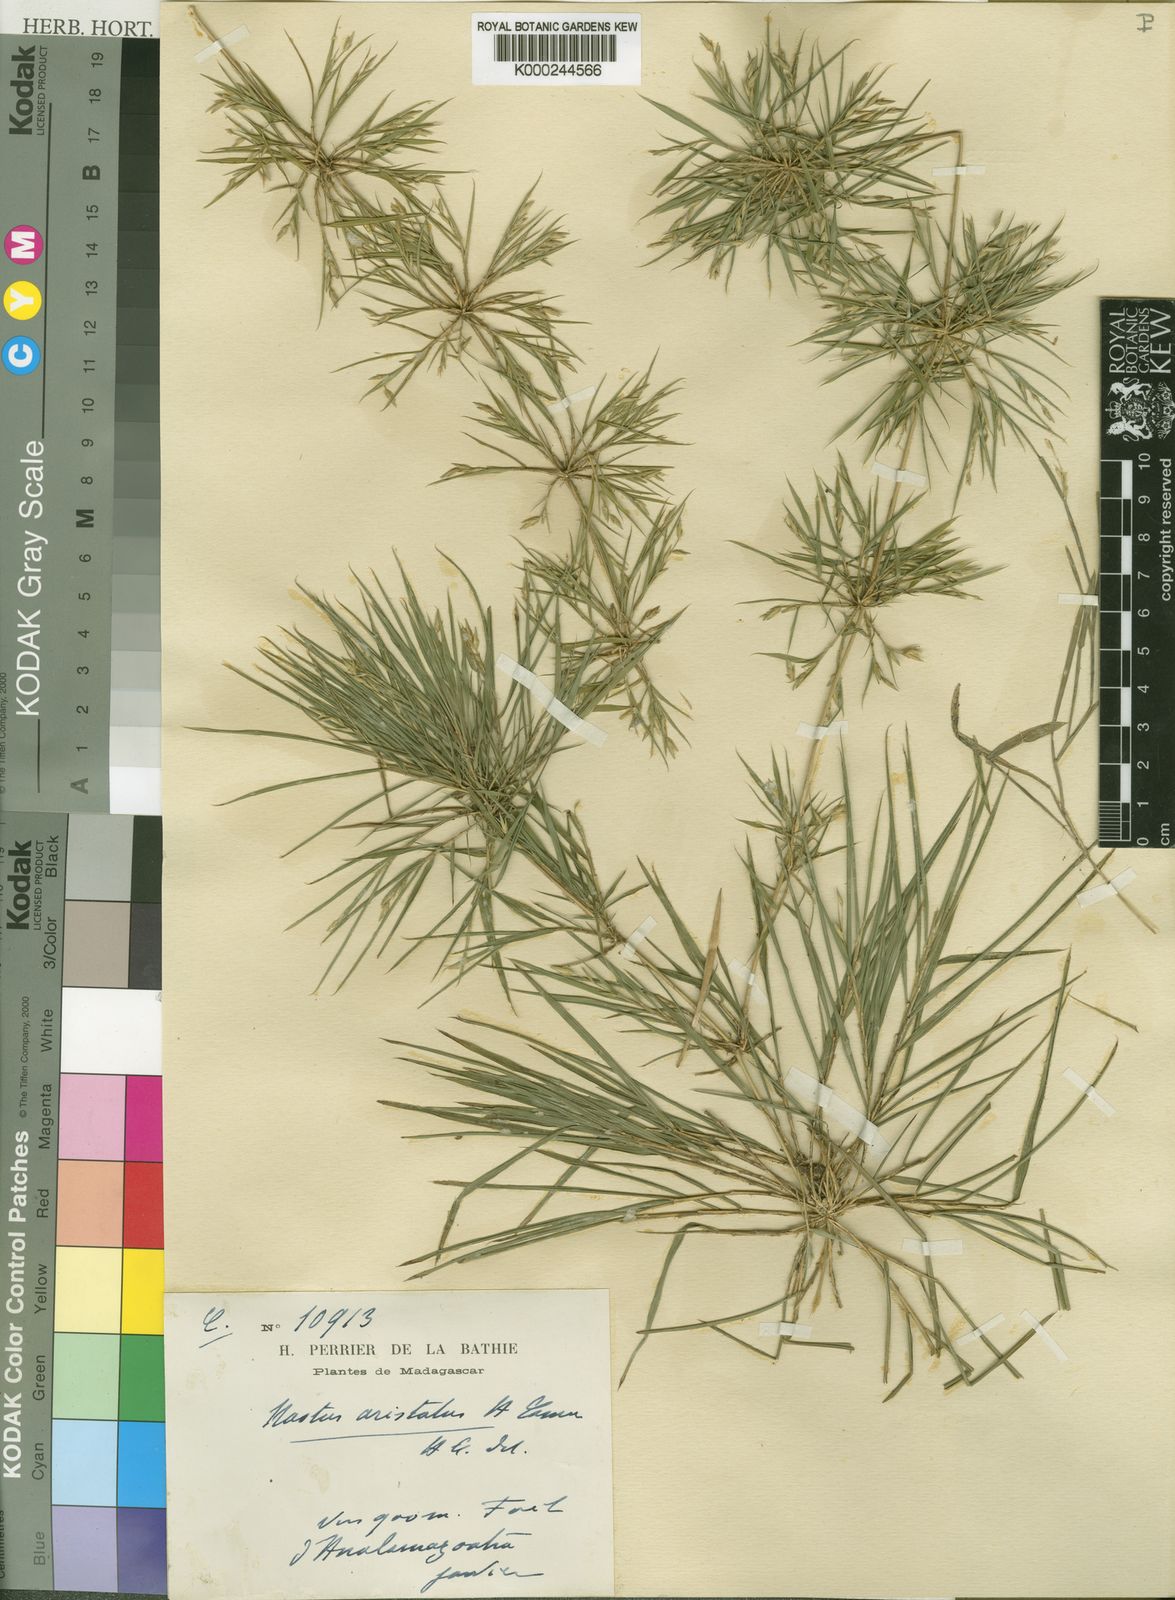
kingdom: Plantae
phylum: Tracheophyta
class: Liliopsida
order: Poales
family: Poaceae
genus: Nastus
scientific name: Nastus aristatus
